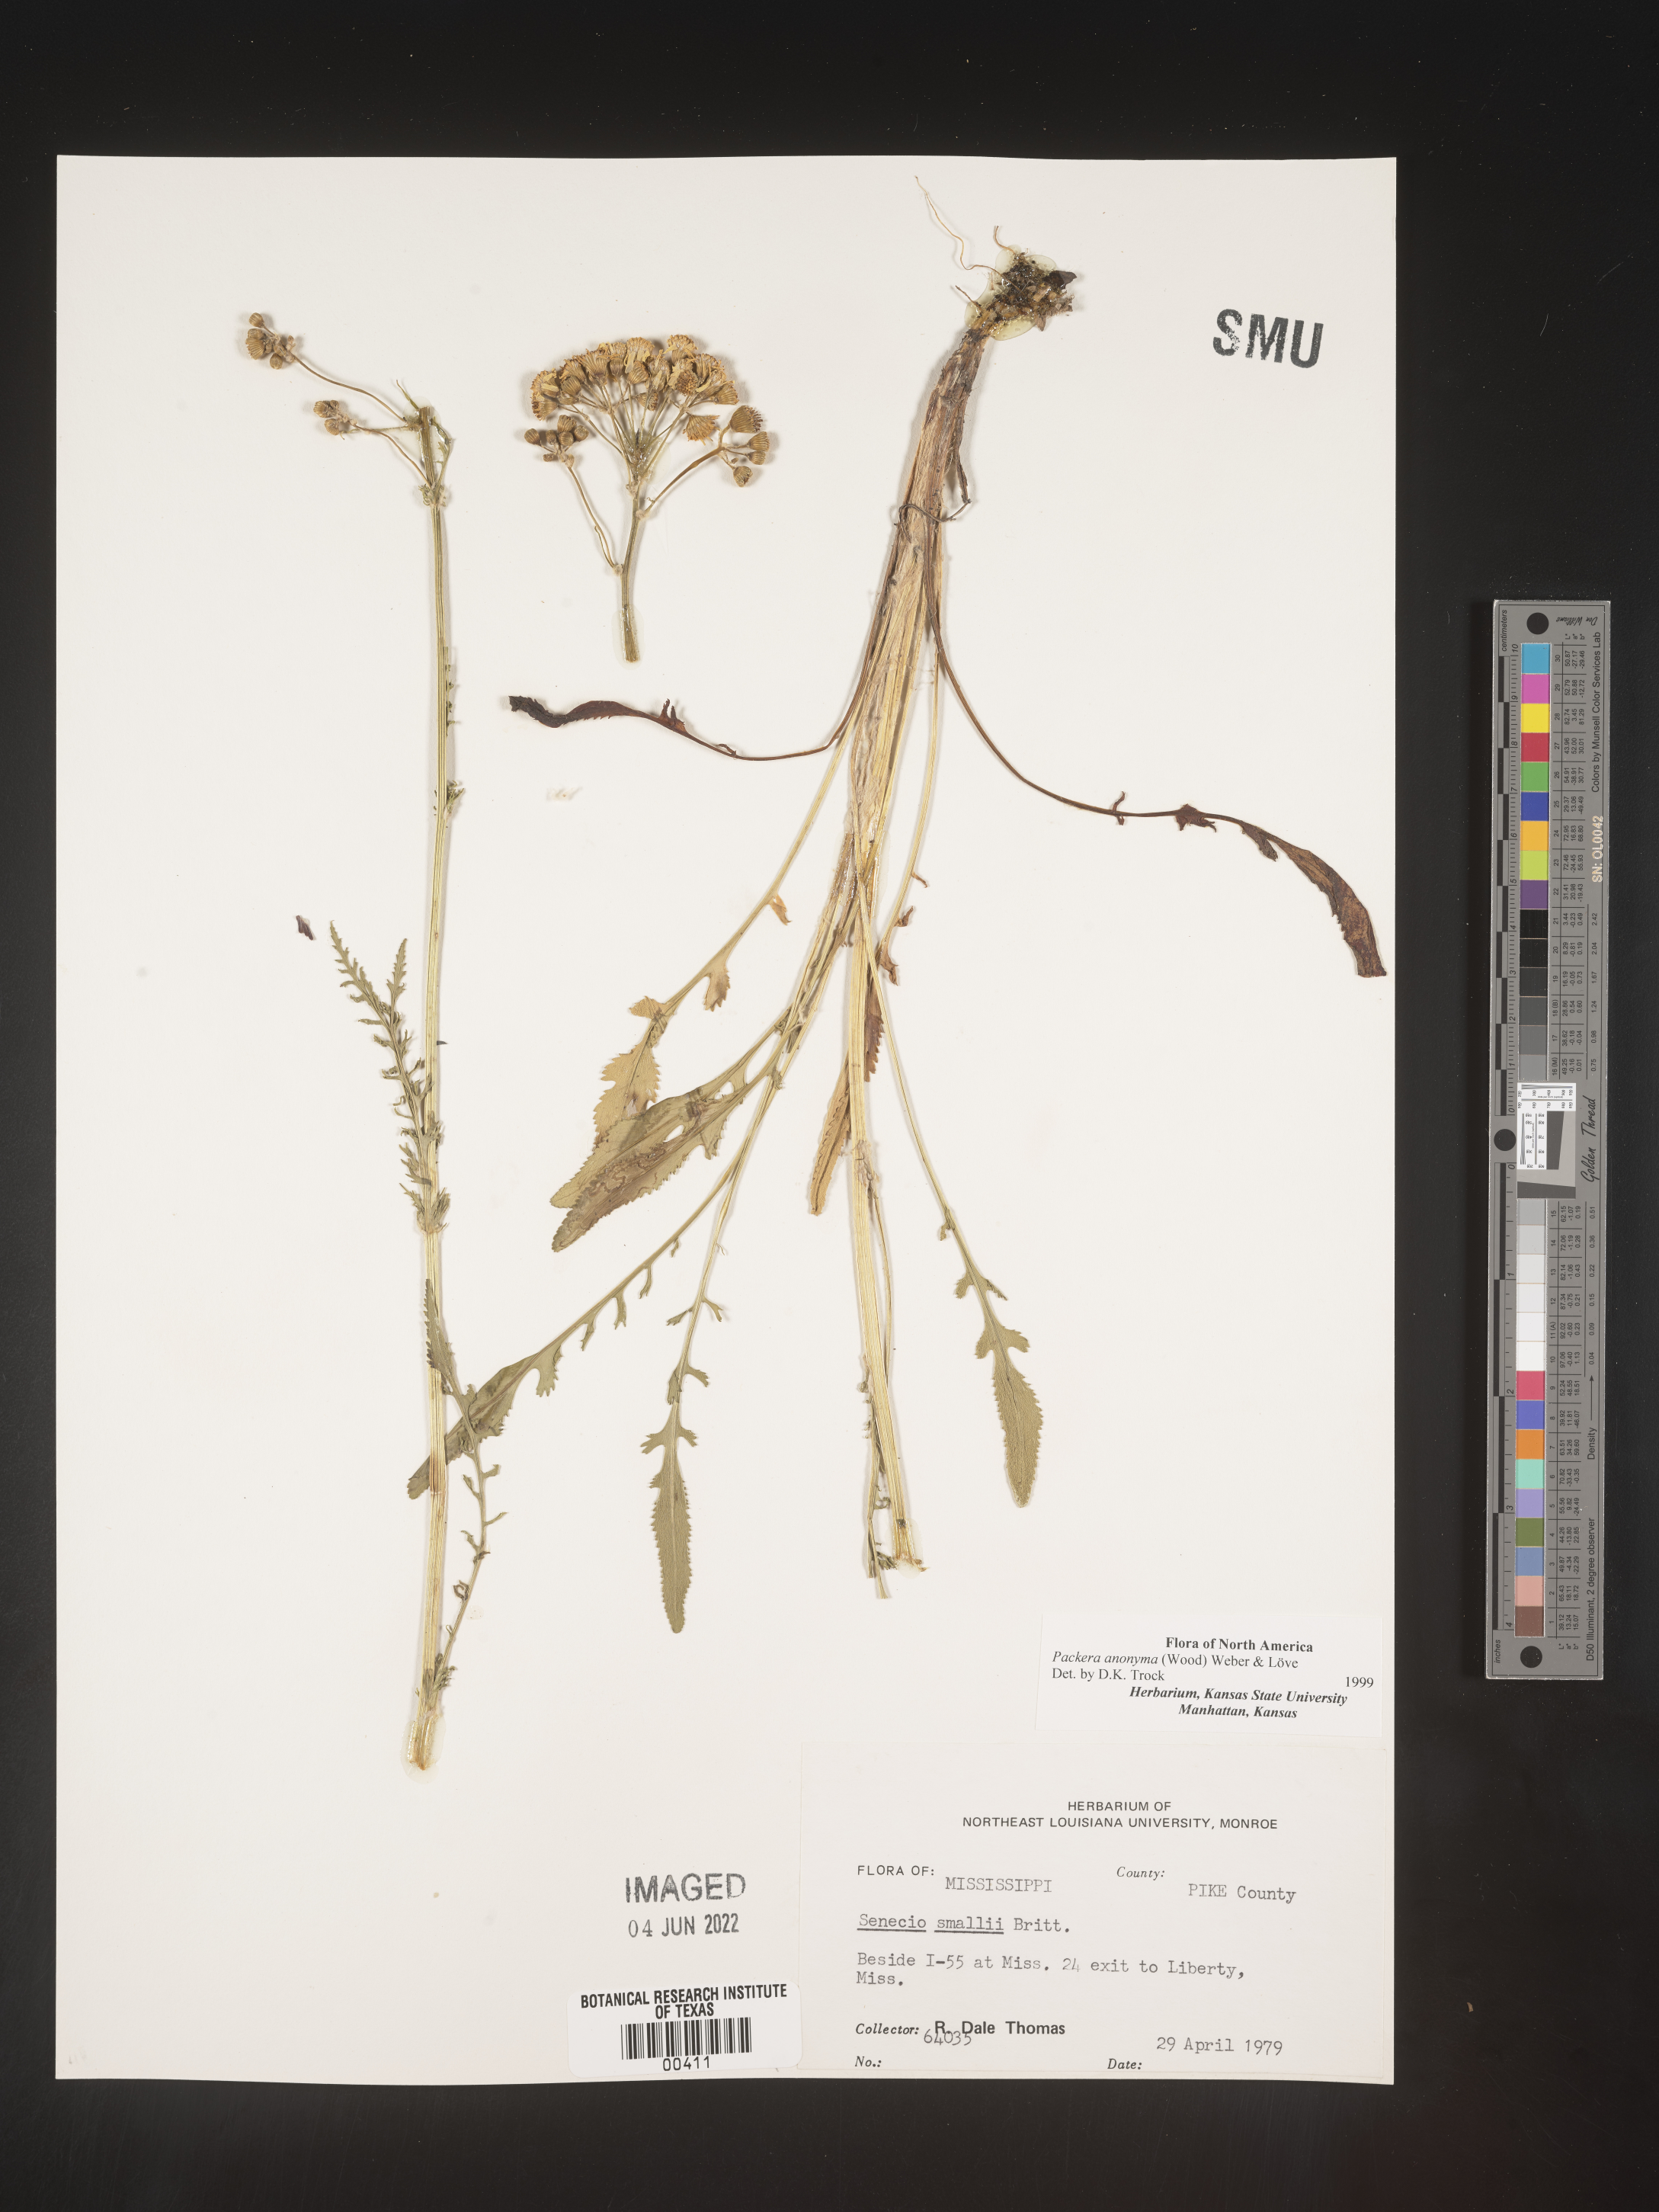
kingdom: Plantae
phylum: Tracheophyta
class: Magnoliopsida
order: Asterales
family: Asteraceae
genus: Packera
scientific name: Packera anonyma
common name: Small ragwort
